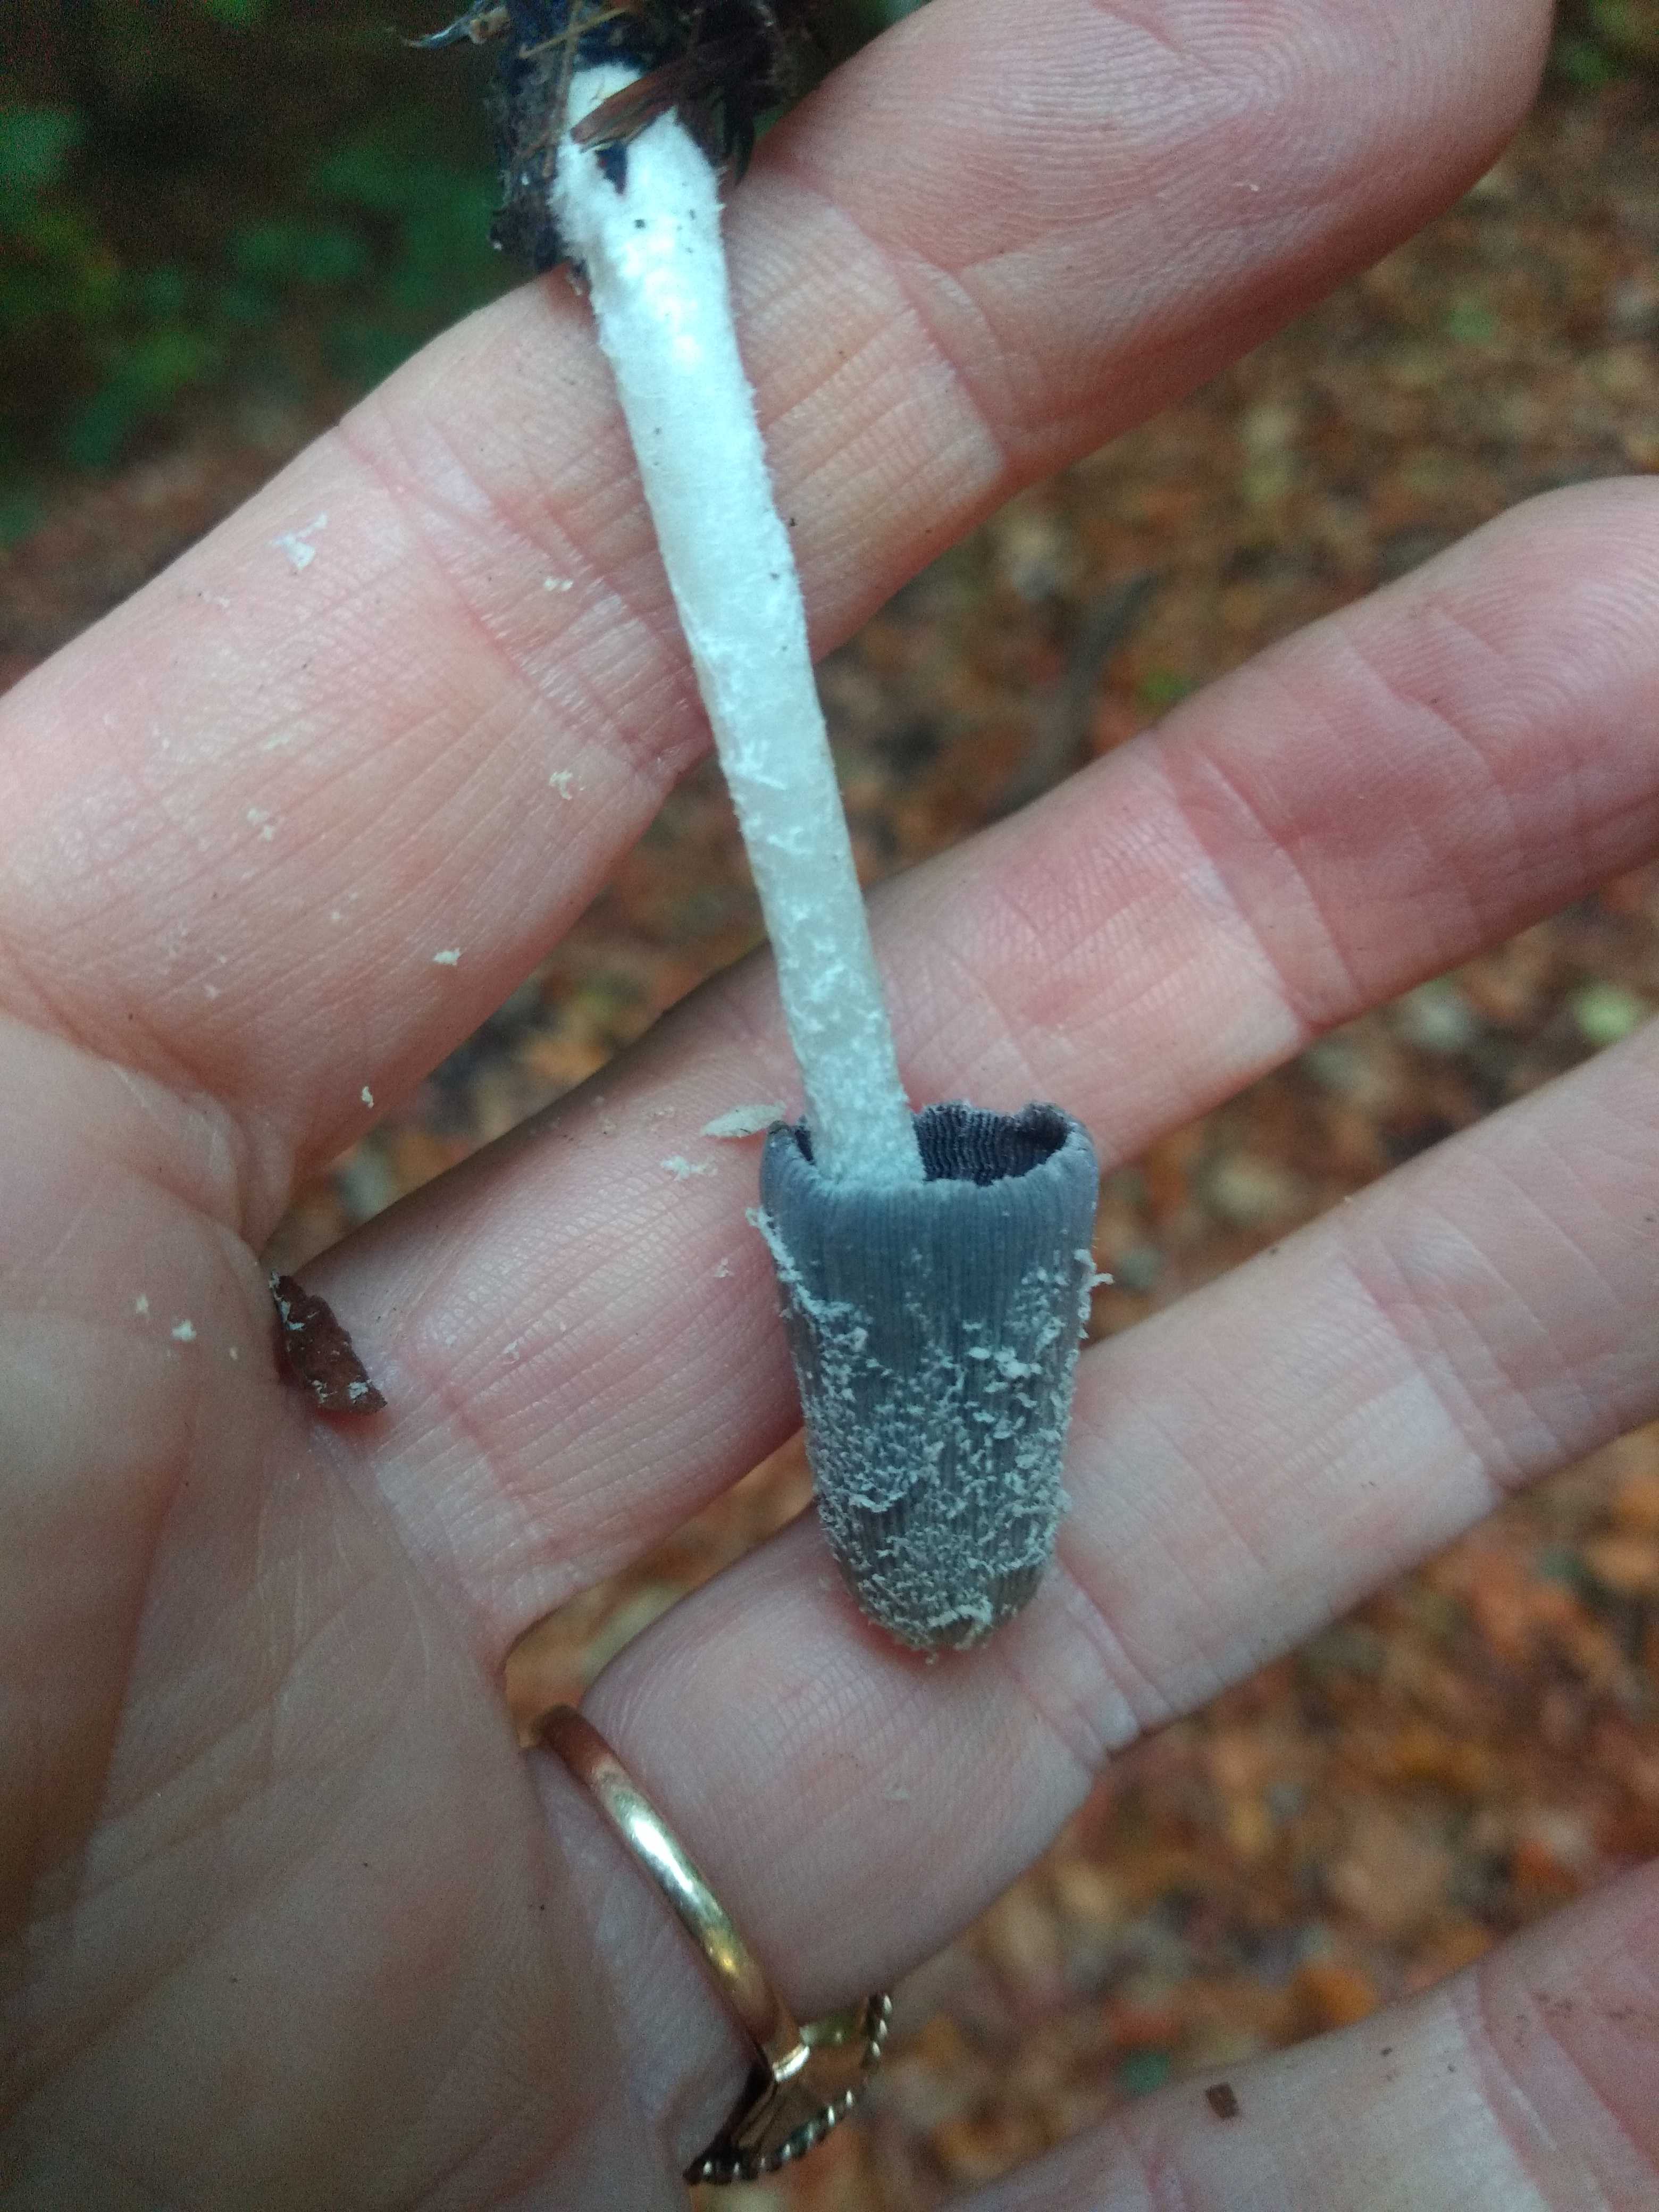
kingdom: Fungi
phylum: Basidiomycota
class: Agaricomycetes
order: Agaricales
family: Psathyrellaceae
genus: Coprinopsis
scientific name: Coprinopsis lagopus
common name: dunstokket blækhat
